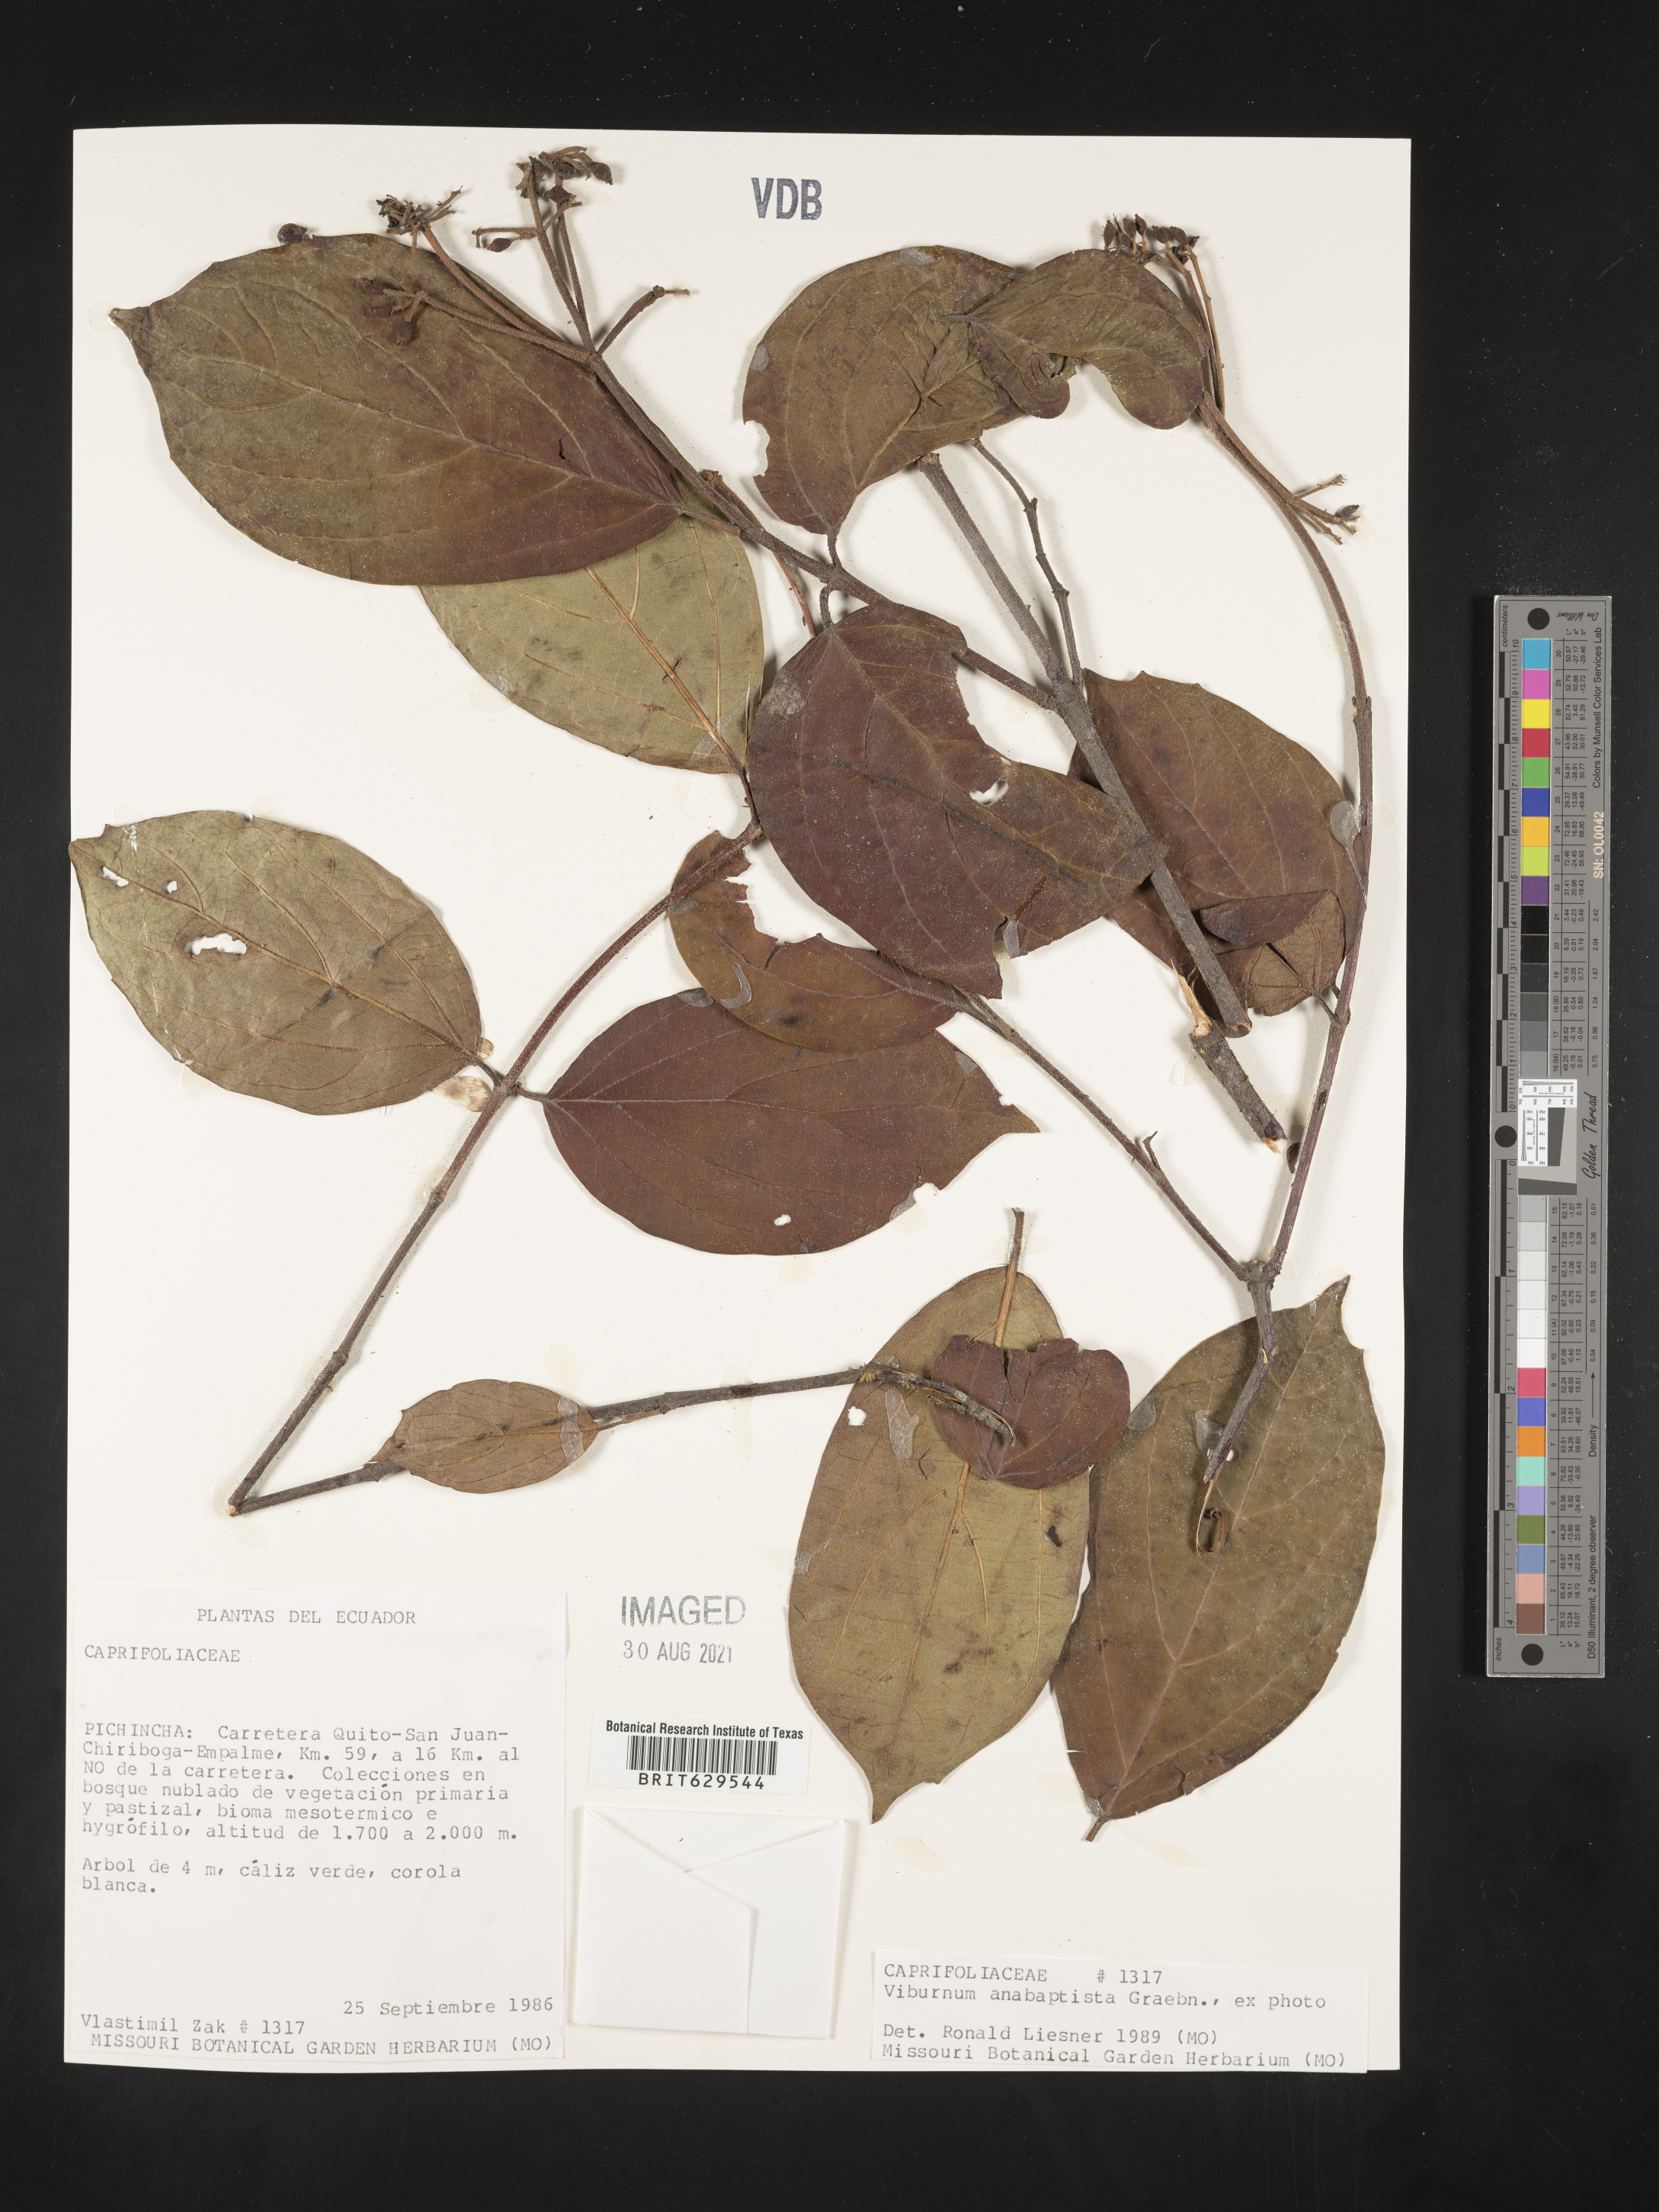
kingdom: Plantae
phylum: Tracheophyta
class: Magnoliopsida
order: Dipsacales
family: Viburnaceae
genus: Viburnum
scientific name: Viburnum anabaptista
